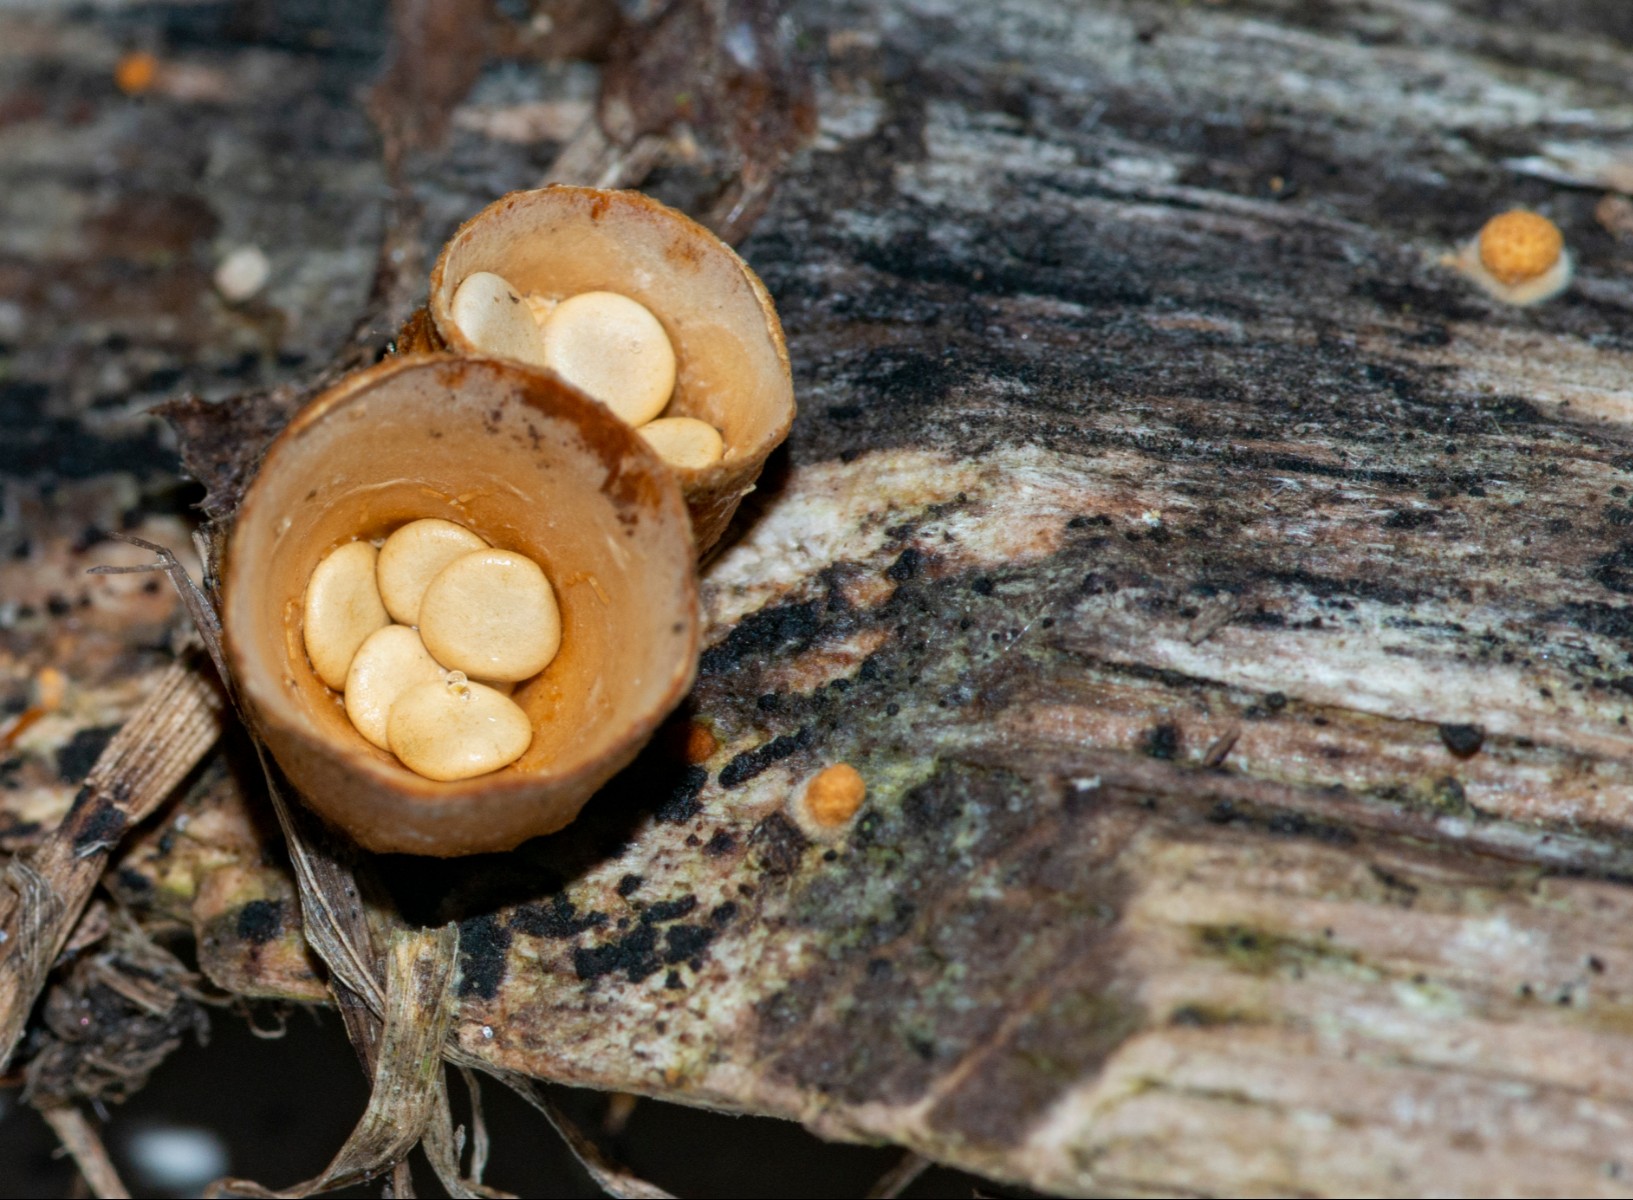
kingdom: Fungi
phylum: Basidiomycota
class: Agaricomycetes
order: Agaricales
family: Nidulariaceae
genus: Crucibulum
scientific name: Crucibulum crucibuliforme
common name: krukkesvamp
